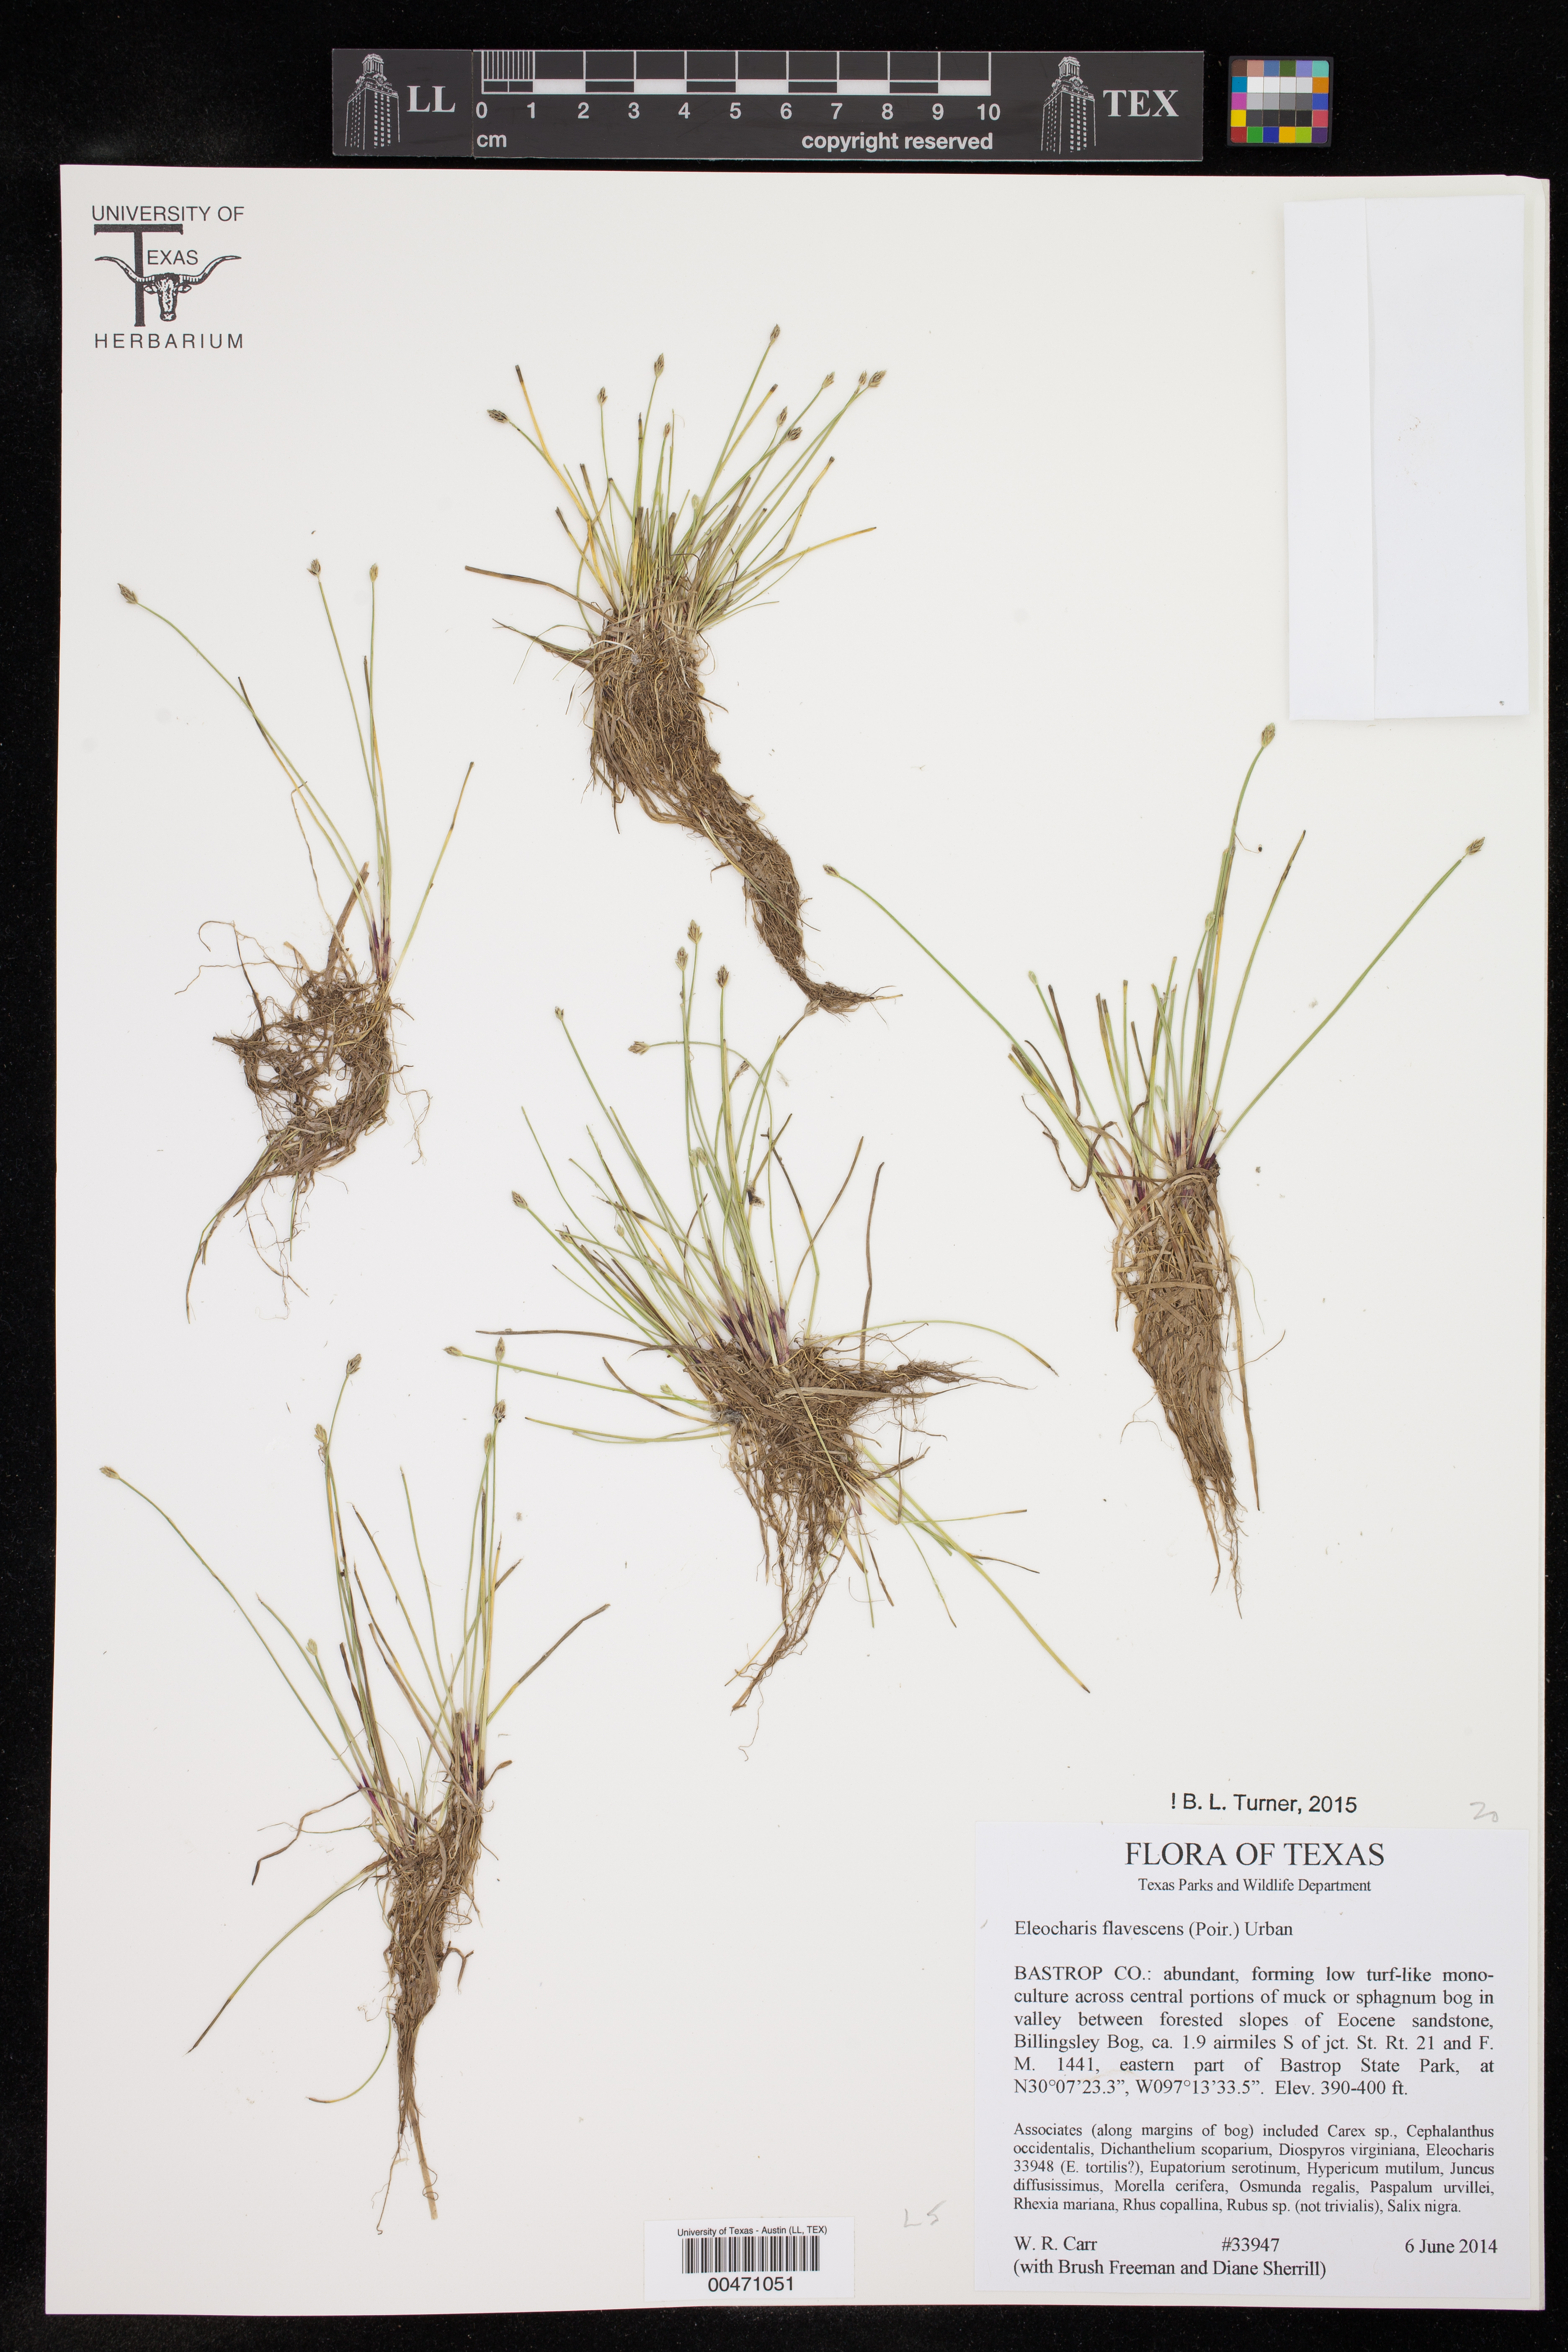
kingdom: Plantae
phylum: Tracheophyta
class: Liliopsida
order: Poales
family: Cyperaceae
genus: Eleocharis
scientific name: Eleocharis flavescens
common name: Yellow spikerush
